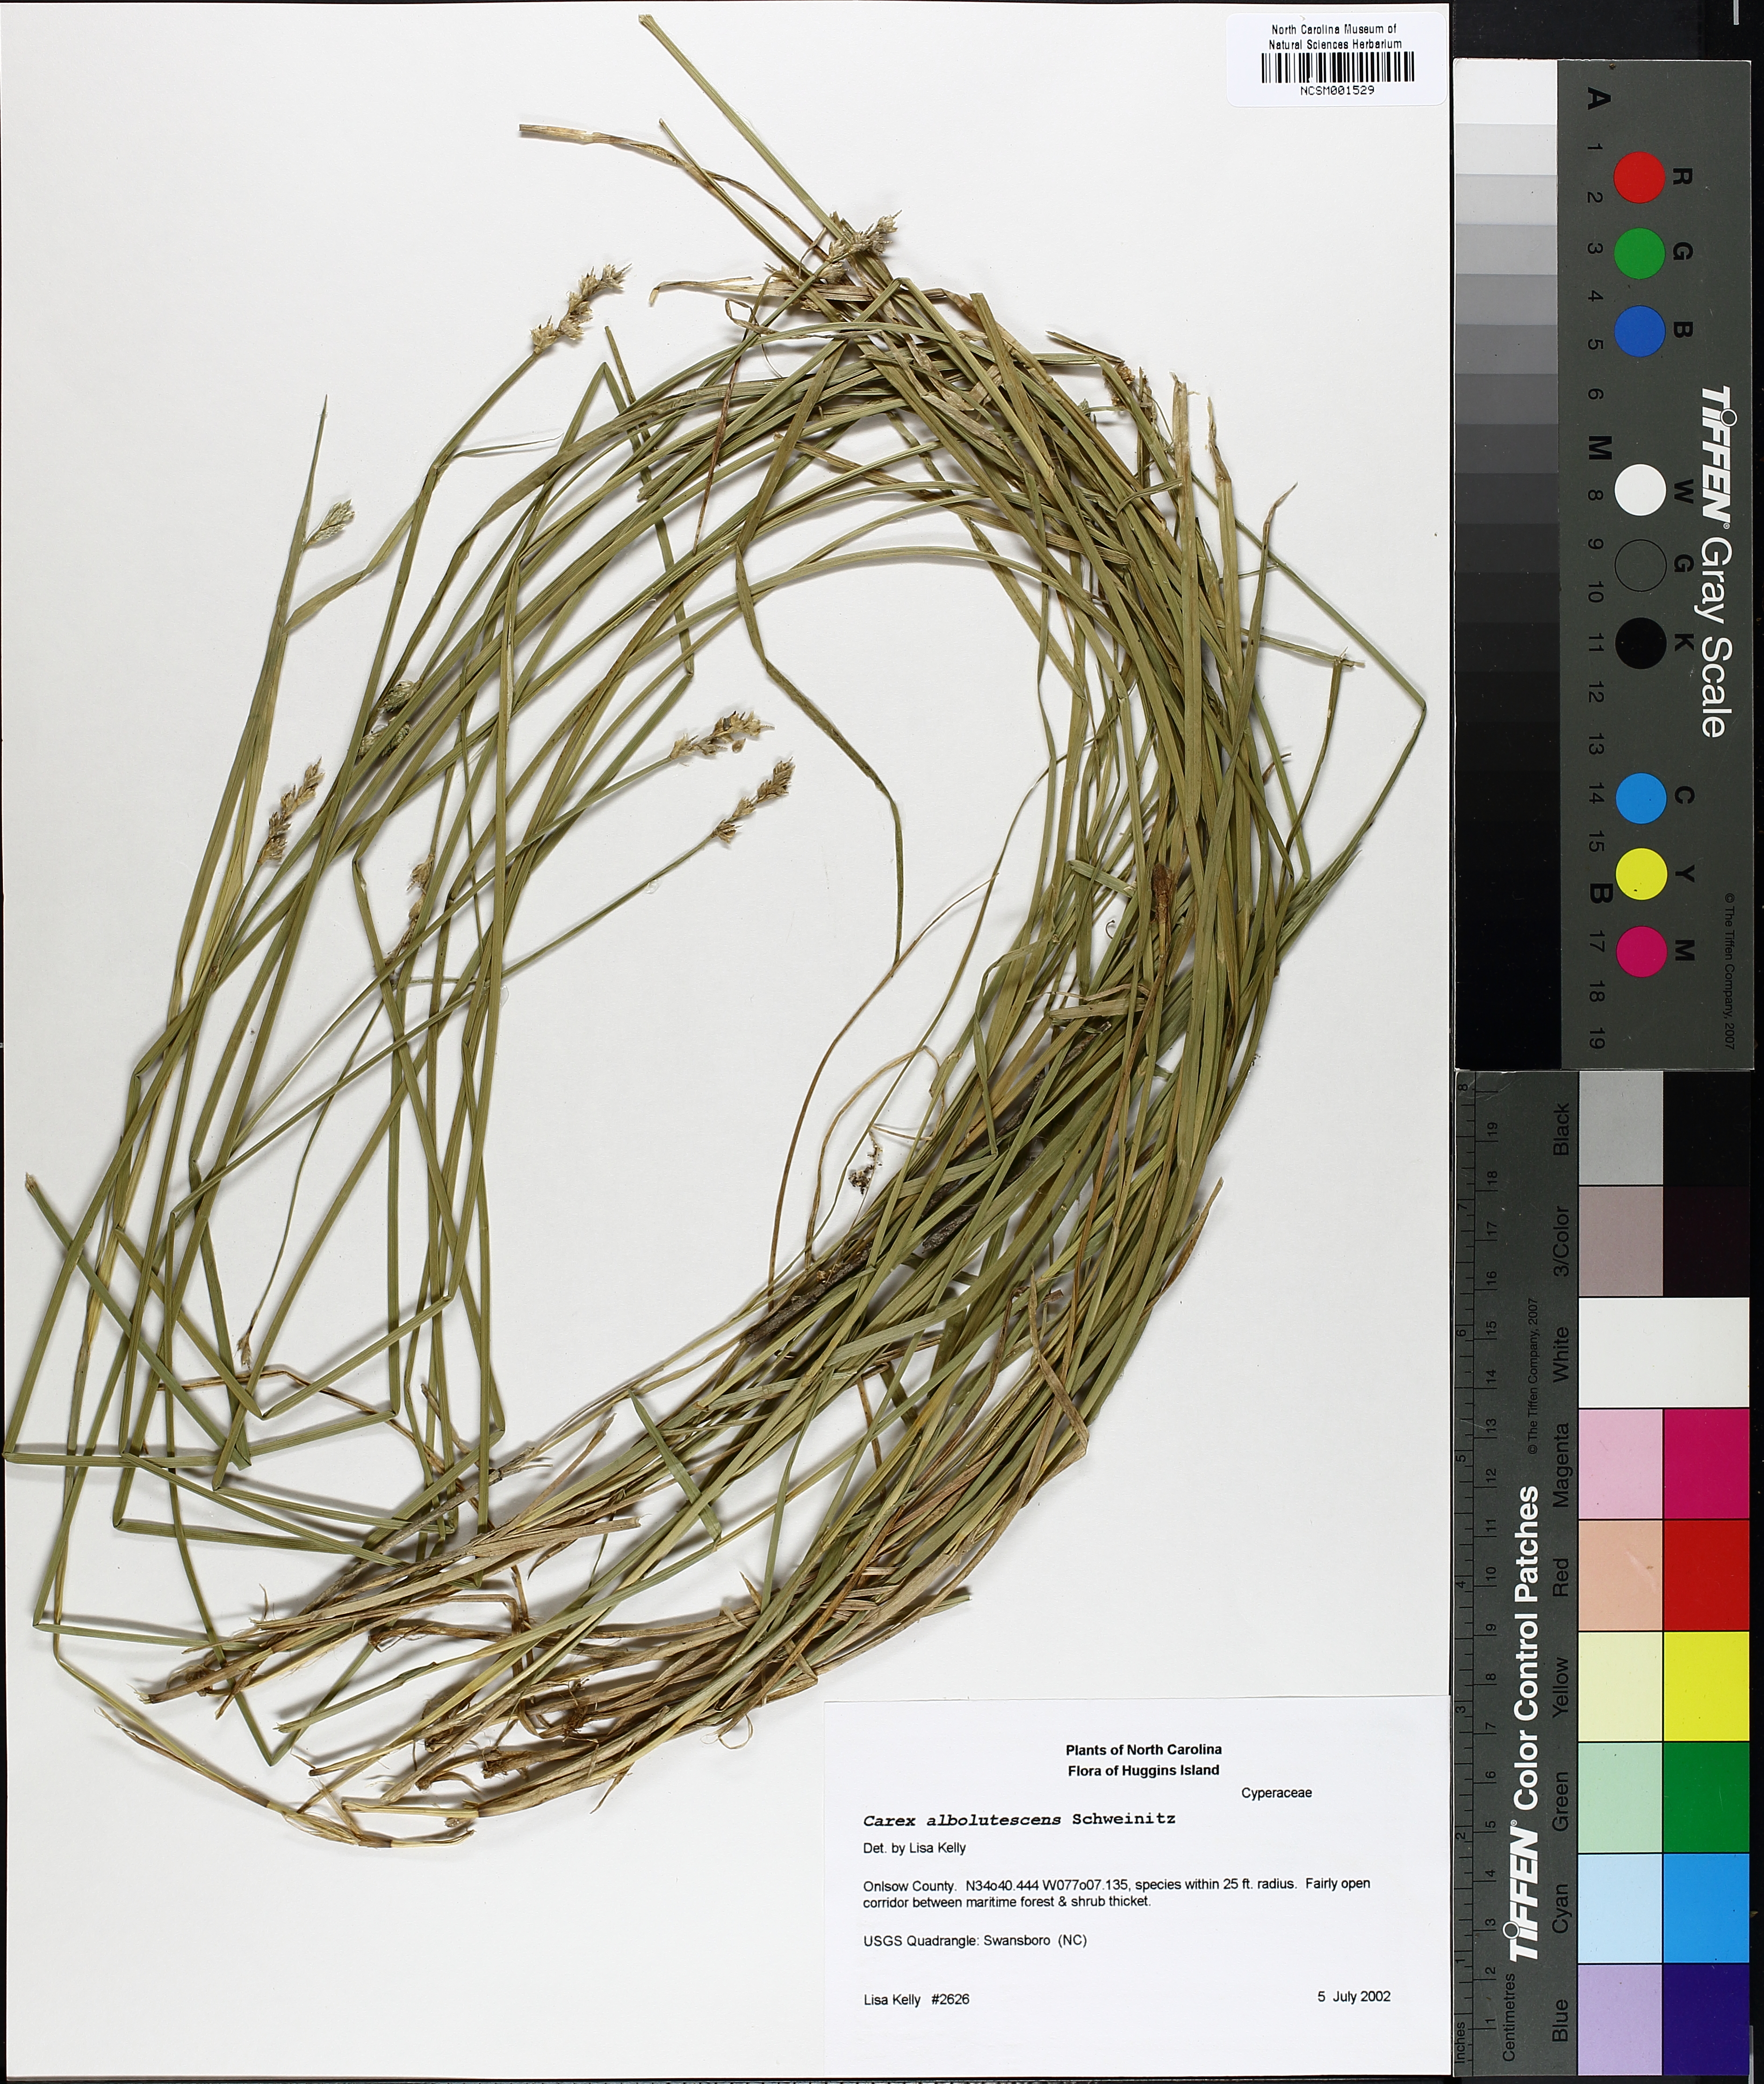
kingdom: Plantae
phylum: Tracheophyta
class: Liliopsida
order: Poales
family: Cyperaceae
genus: Carex
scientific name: Carex albolutescens
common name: Freenish white sedge
